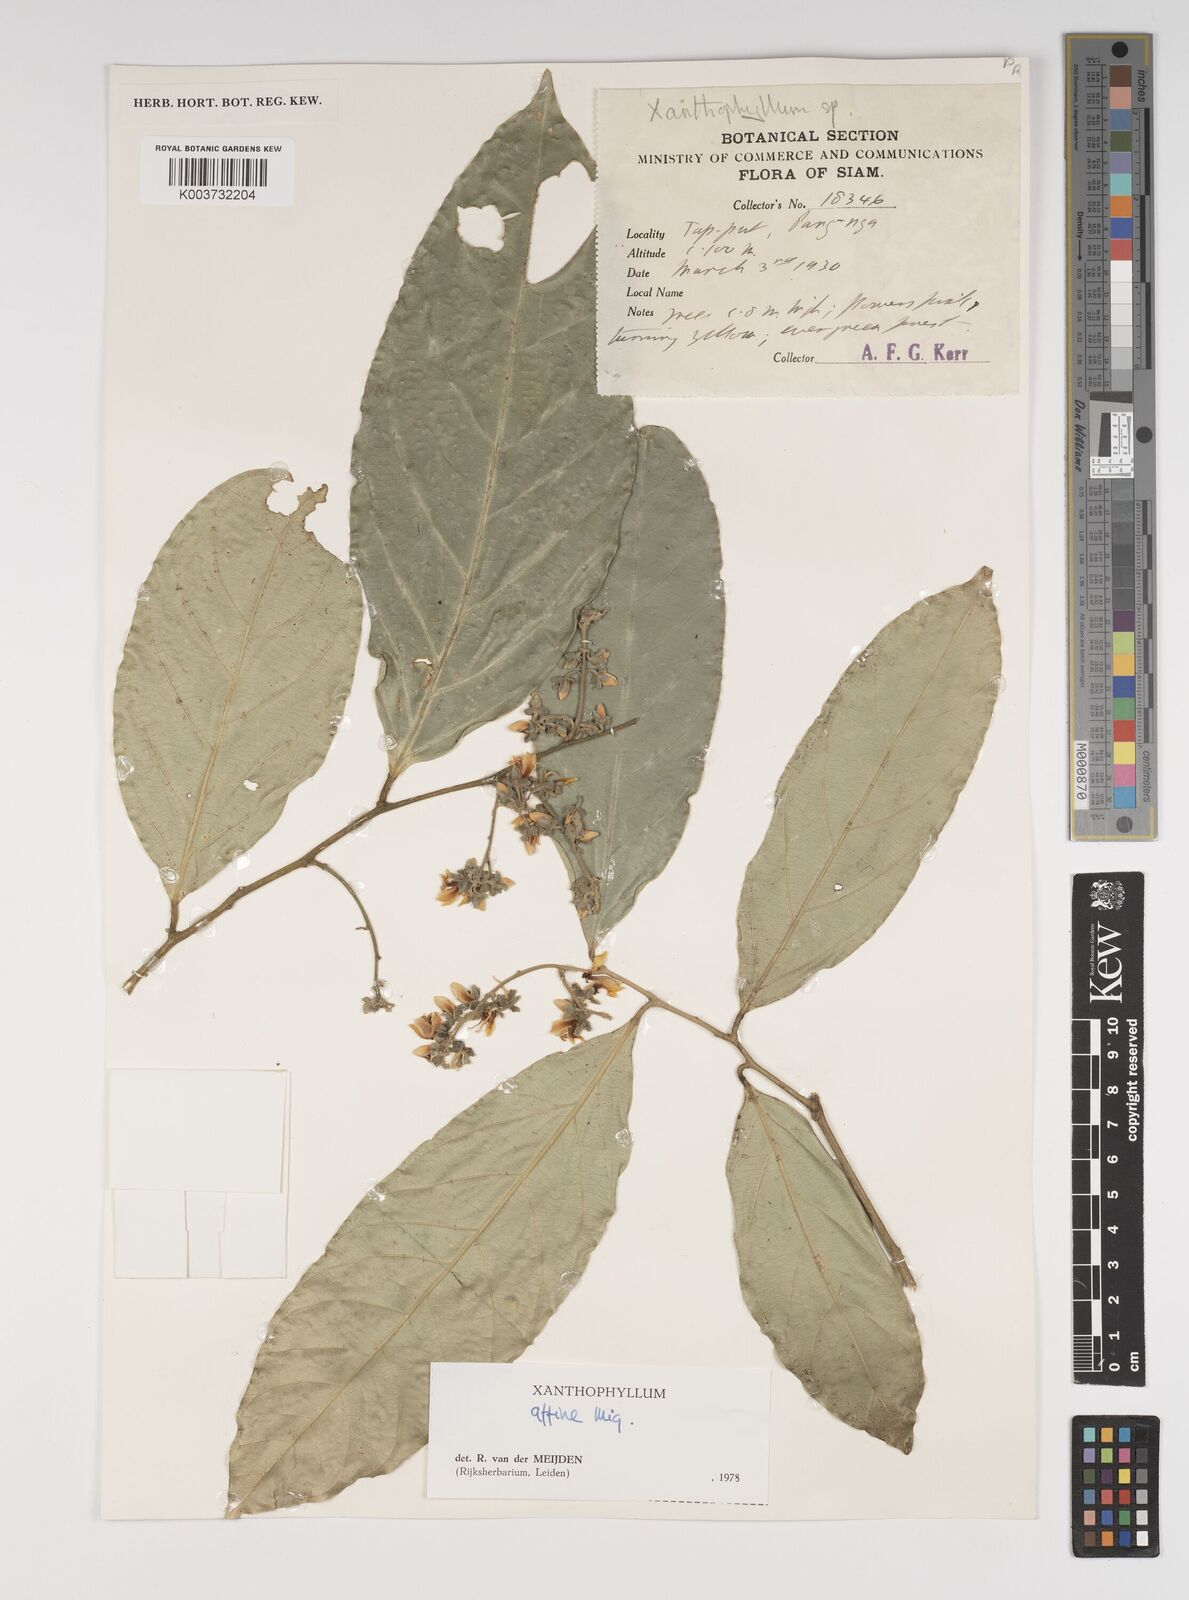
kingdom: Plantae
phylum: Tracheophyta
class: Magnoliopsida
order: Fabales
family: Polygalaceae
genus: Xanthophyllum
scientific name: Xanthophyllum flavescens
